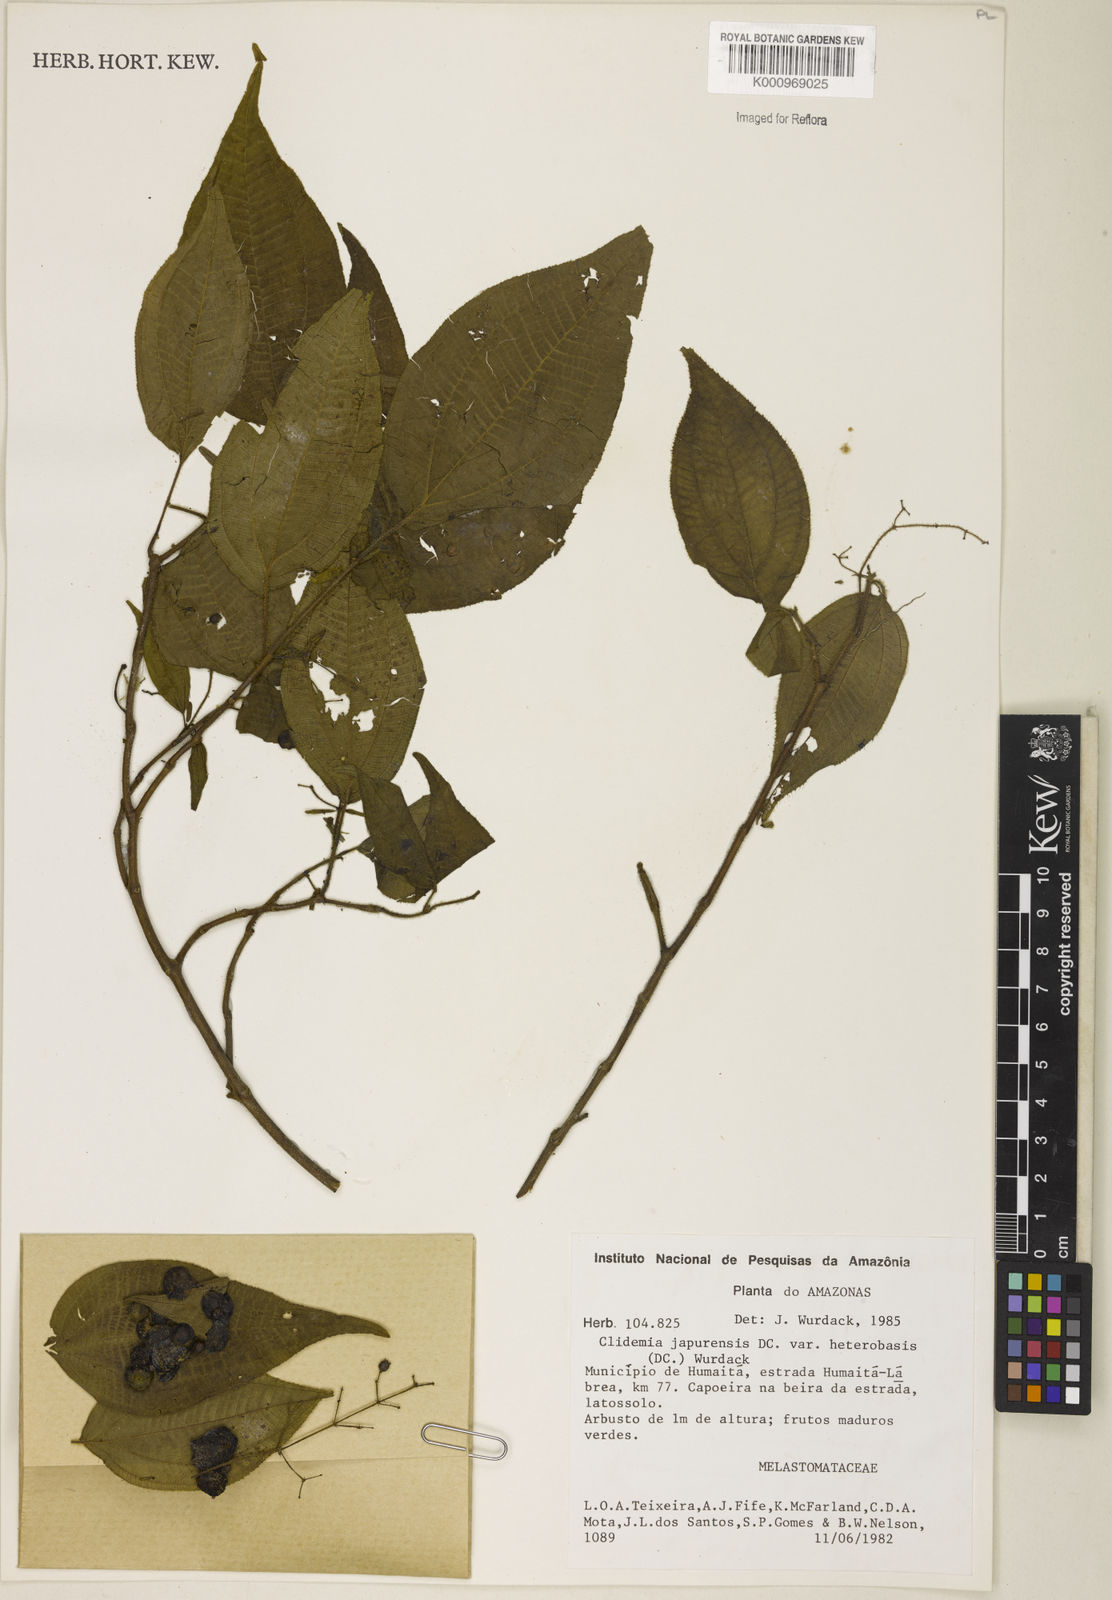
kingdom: Plantae
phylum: Tracheophyta
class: Magnoliopsida
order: Myrtales
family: Melastomataceae
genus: Miconia
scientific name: Miconia heteroclita
